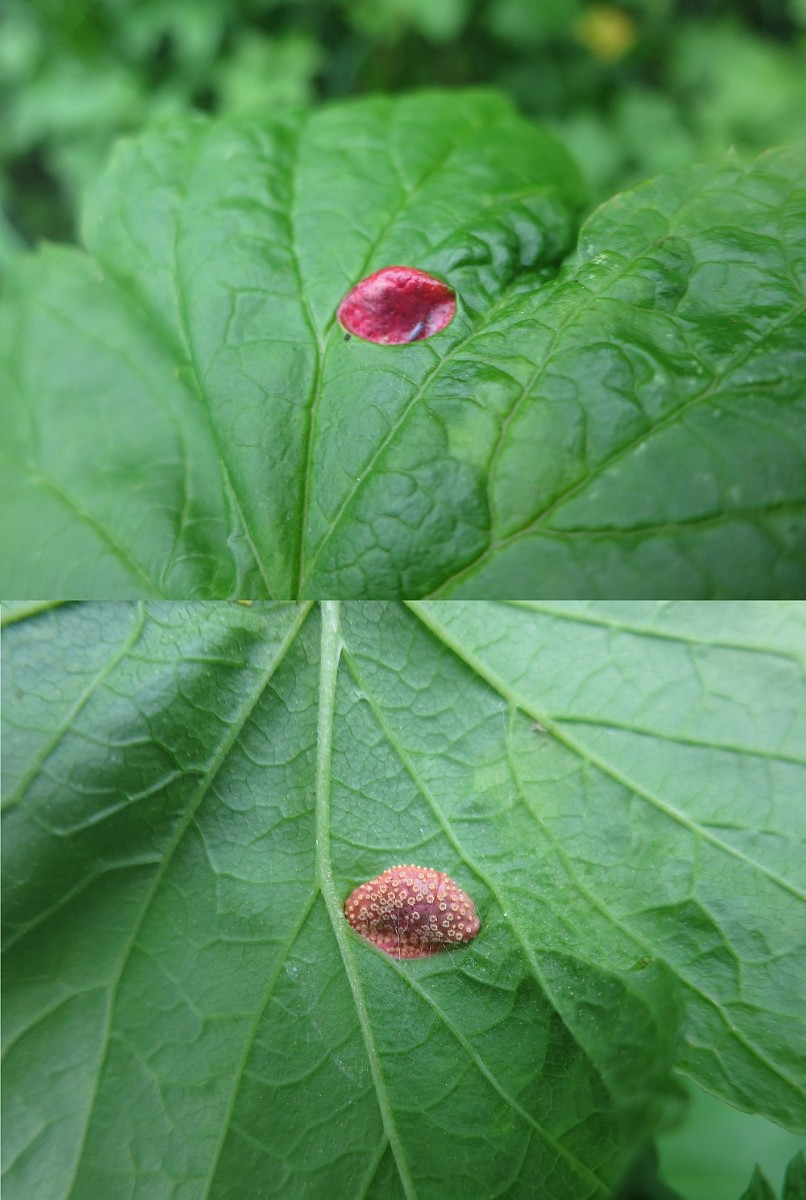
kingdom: Fungi
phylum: Basidiomycota
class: Pucciniomycetes
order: Pucciniales
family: Pucciniaceae
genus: Puccinia
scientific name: Puccinia caricina
